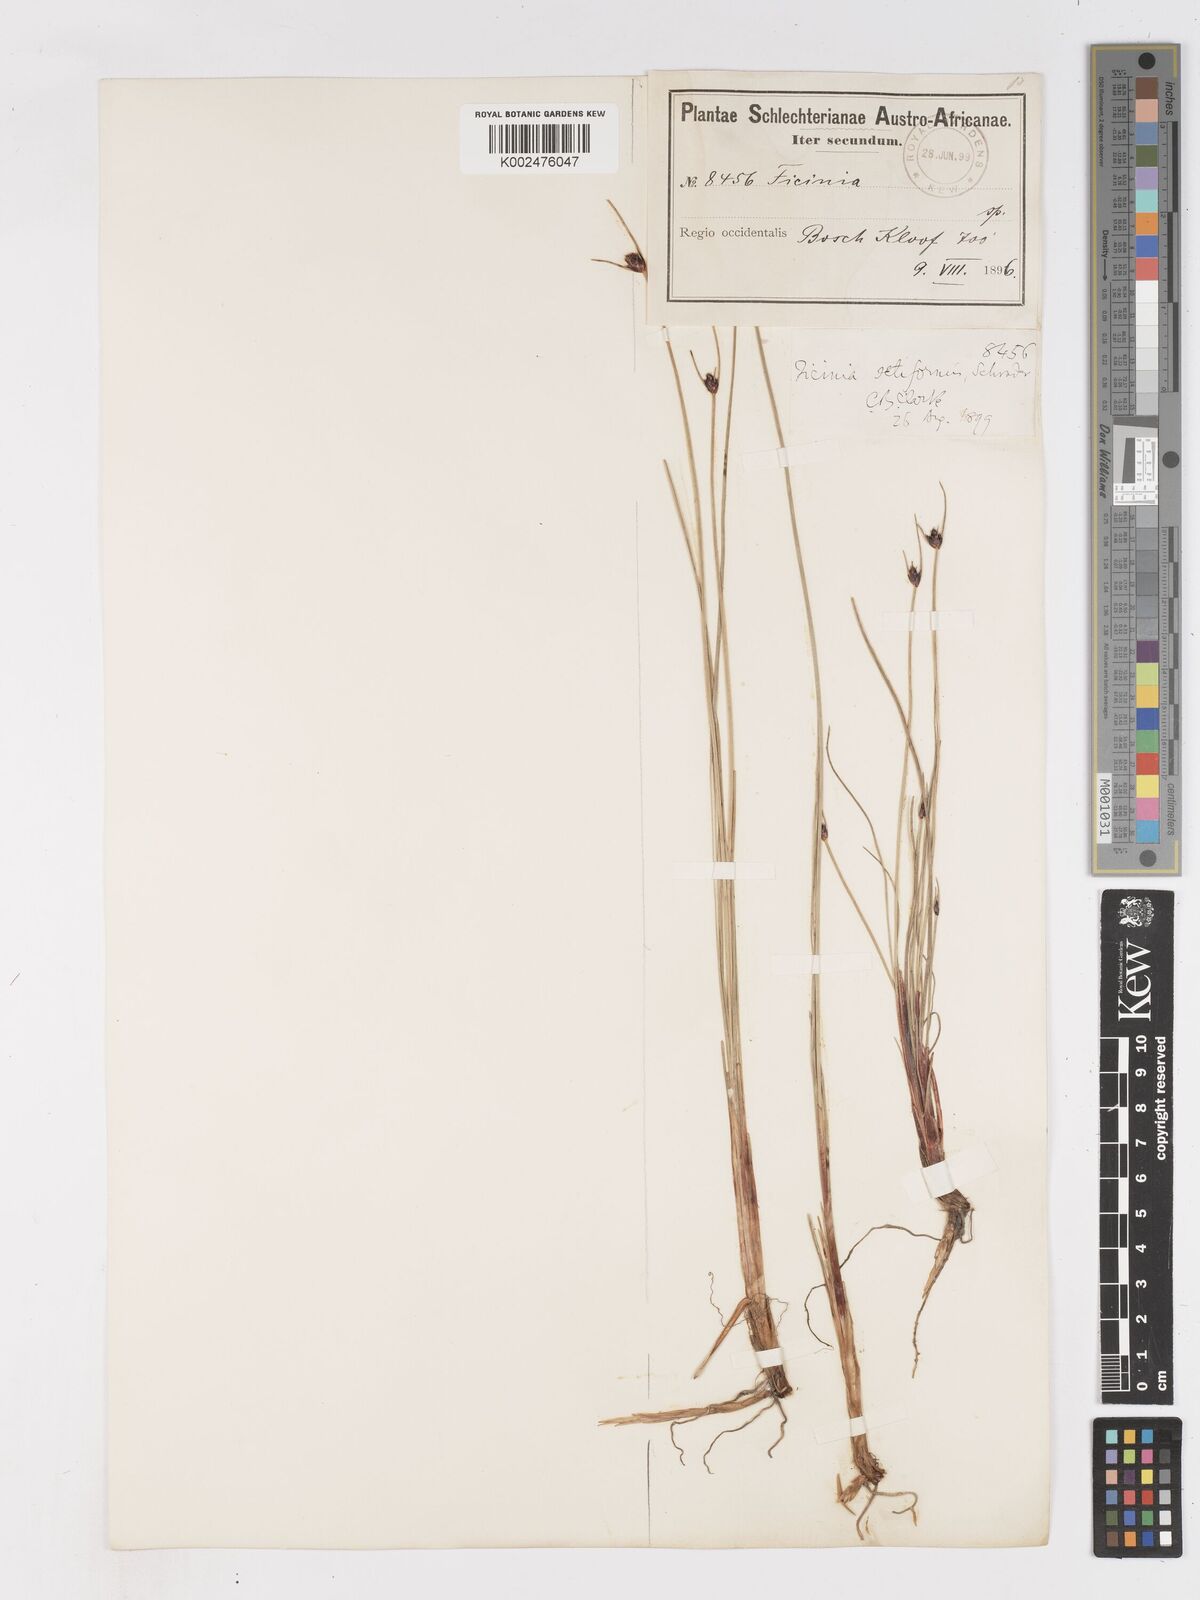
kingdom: Plantae
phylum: Tracheophyta
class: Liliopsida
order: Poales
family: Cyperaceae
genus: Ficinia
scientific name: Ficinia indica
